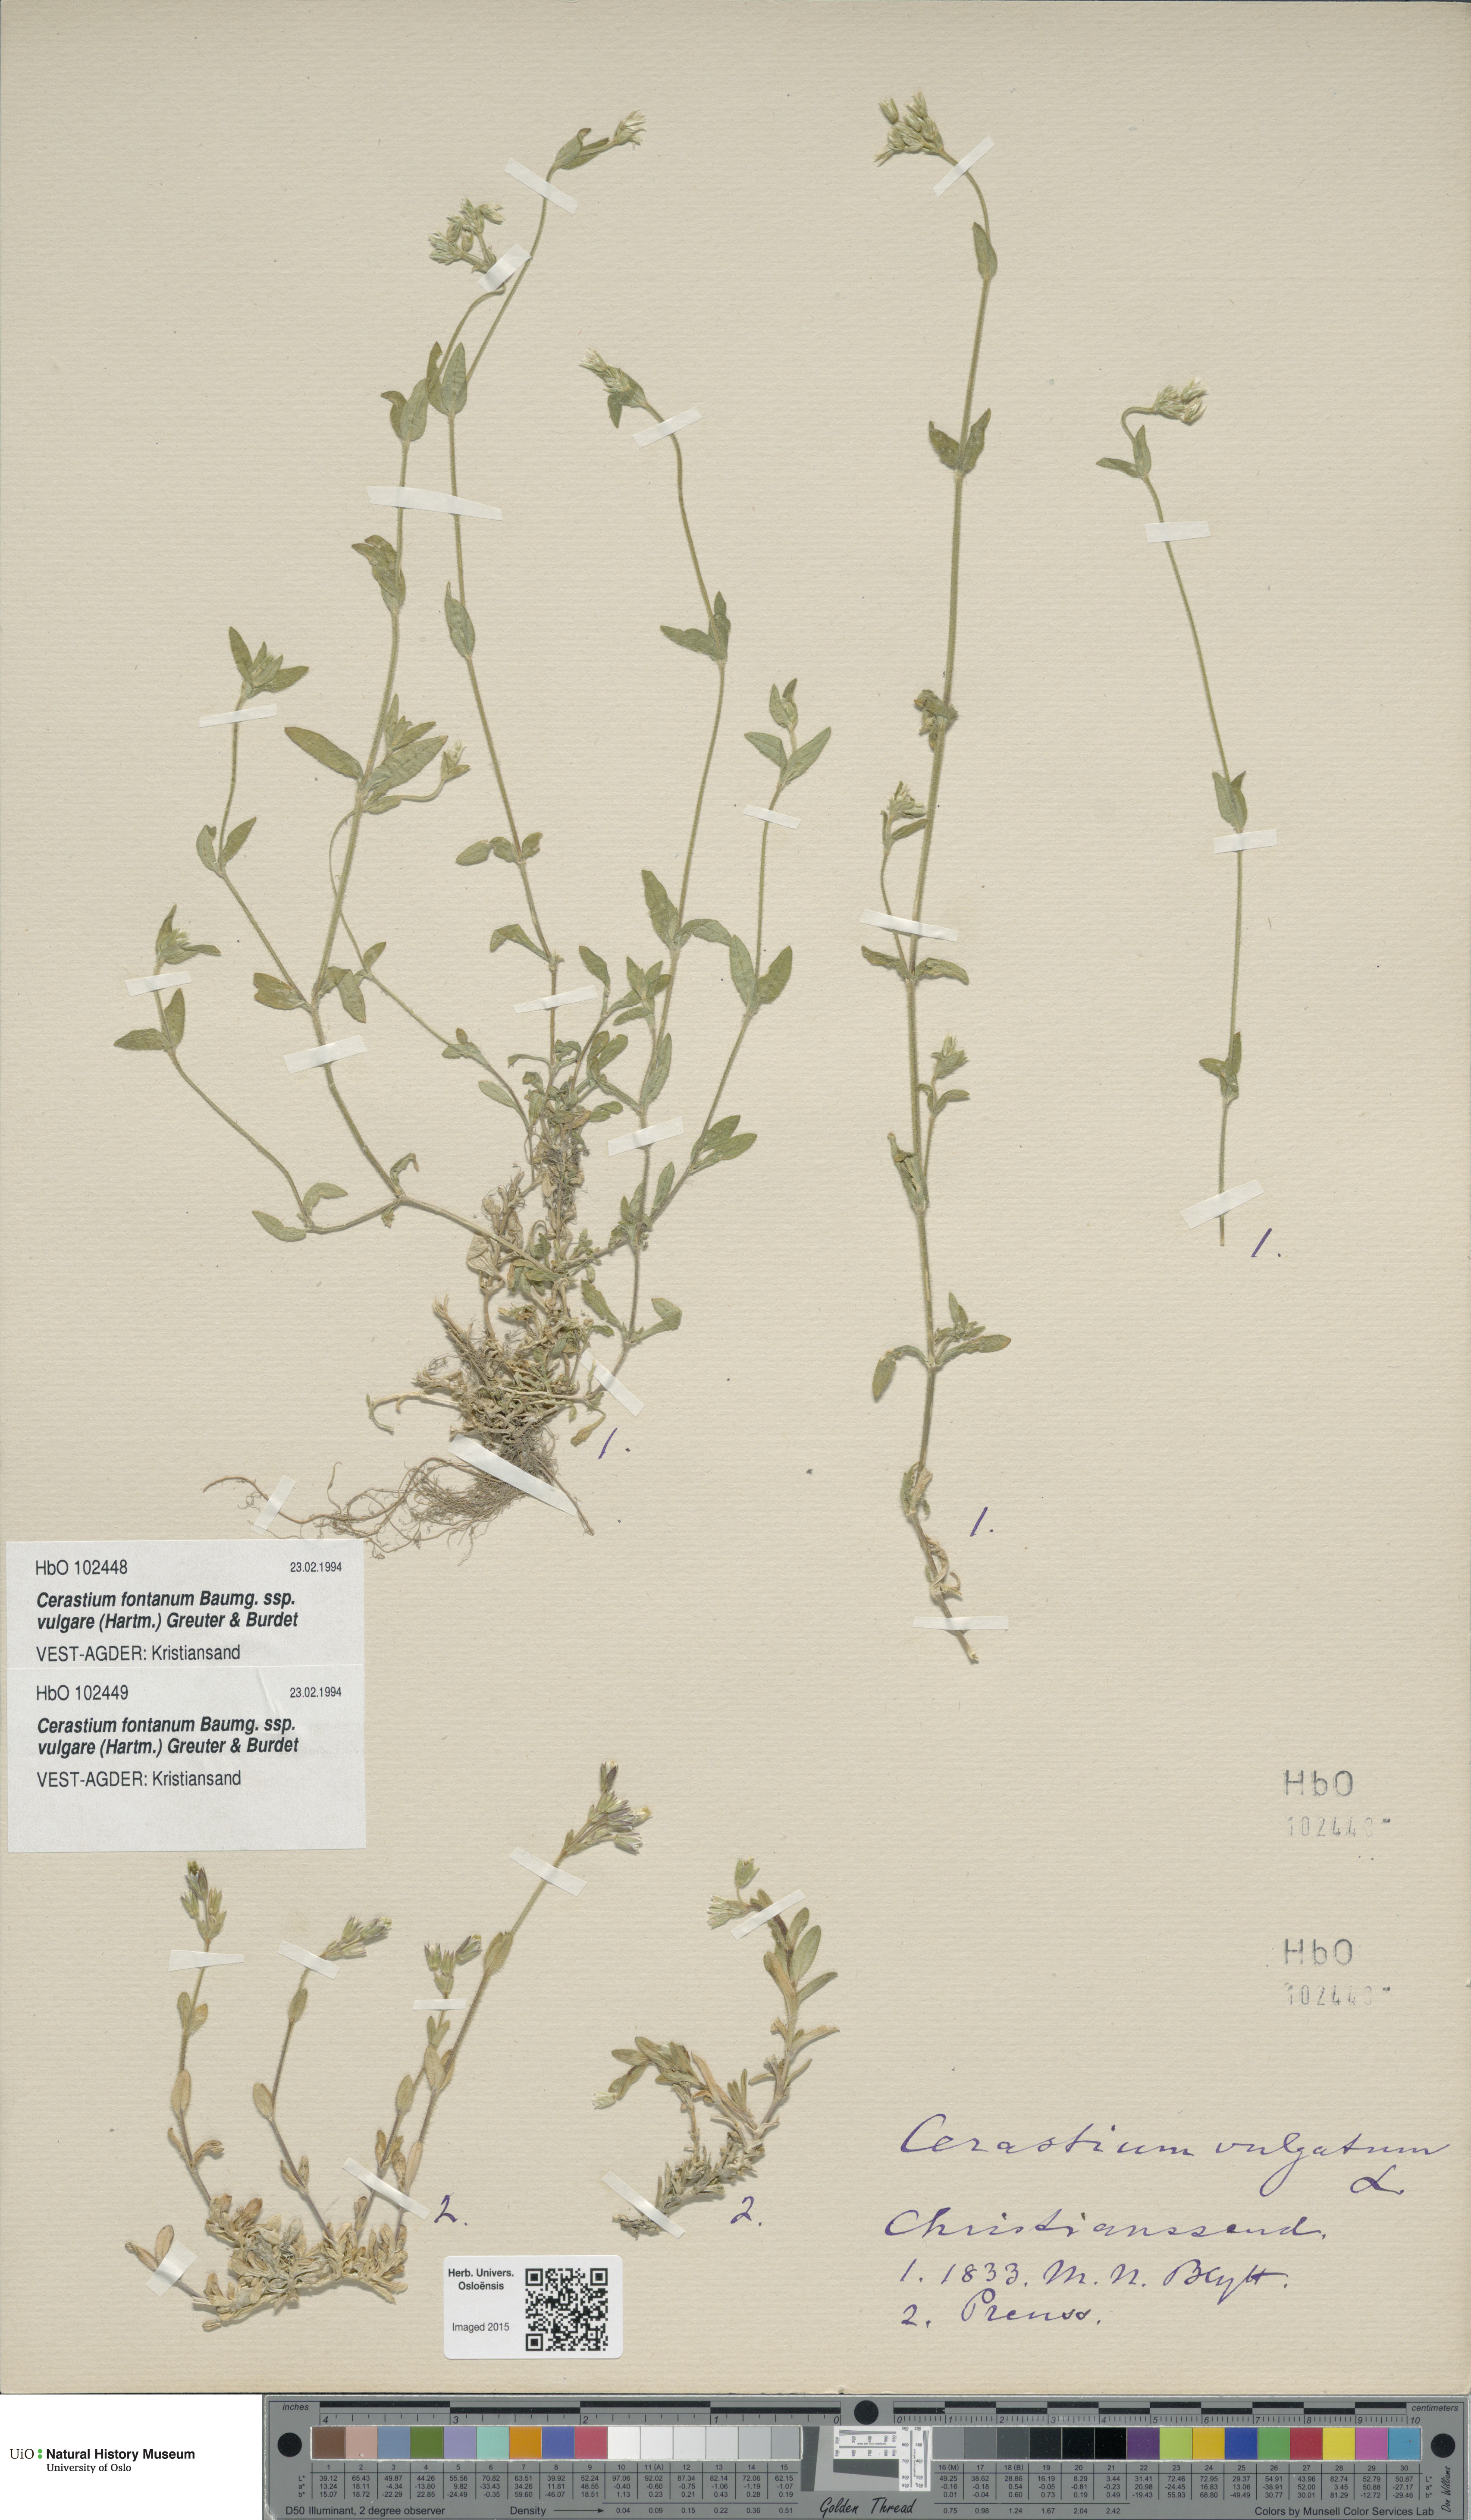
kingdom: Plantae
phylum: Tracheophyta
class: Magnoliopsida
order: Caryophyllales
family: Caryophyllaceae
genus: Cerastium
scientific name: Cerastium holosteoides
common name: Big chickweed
